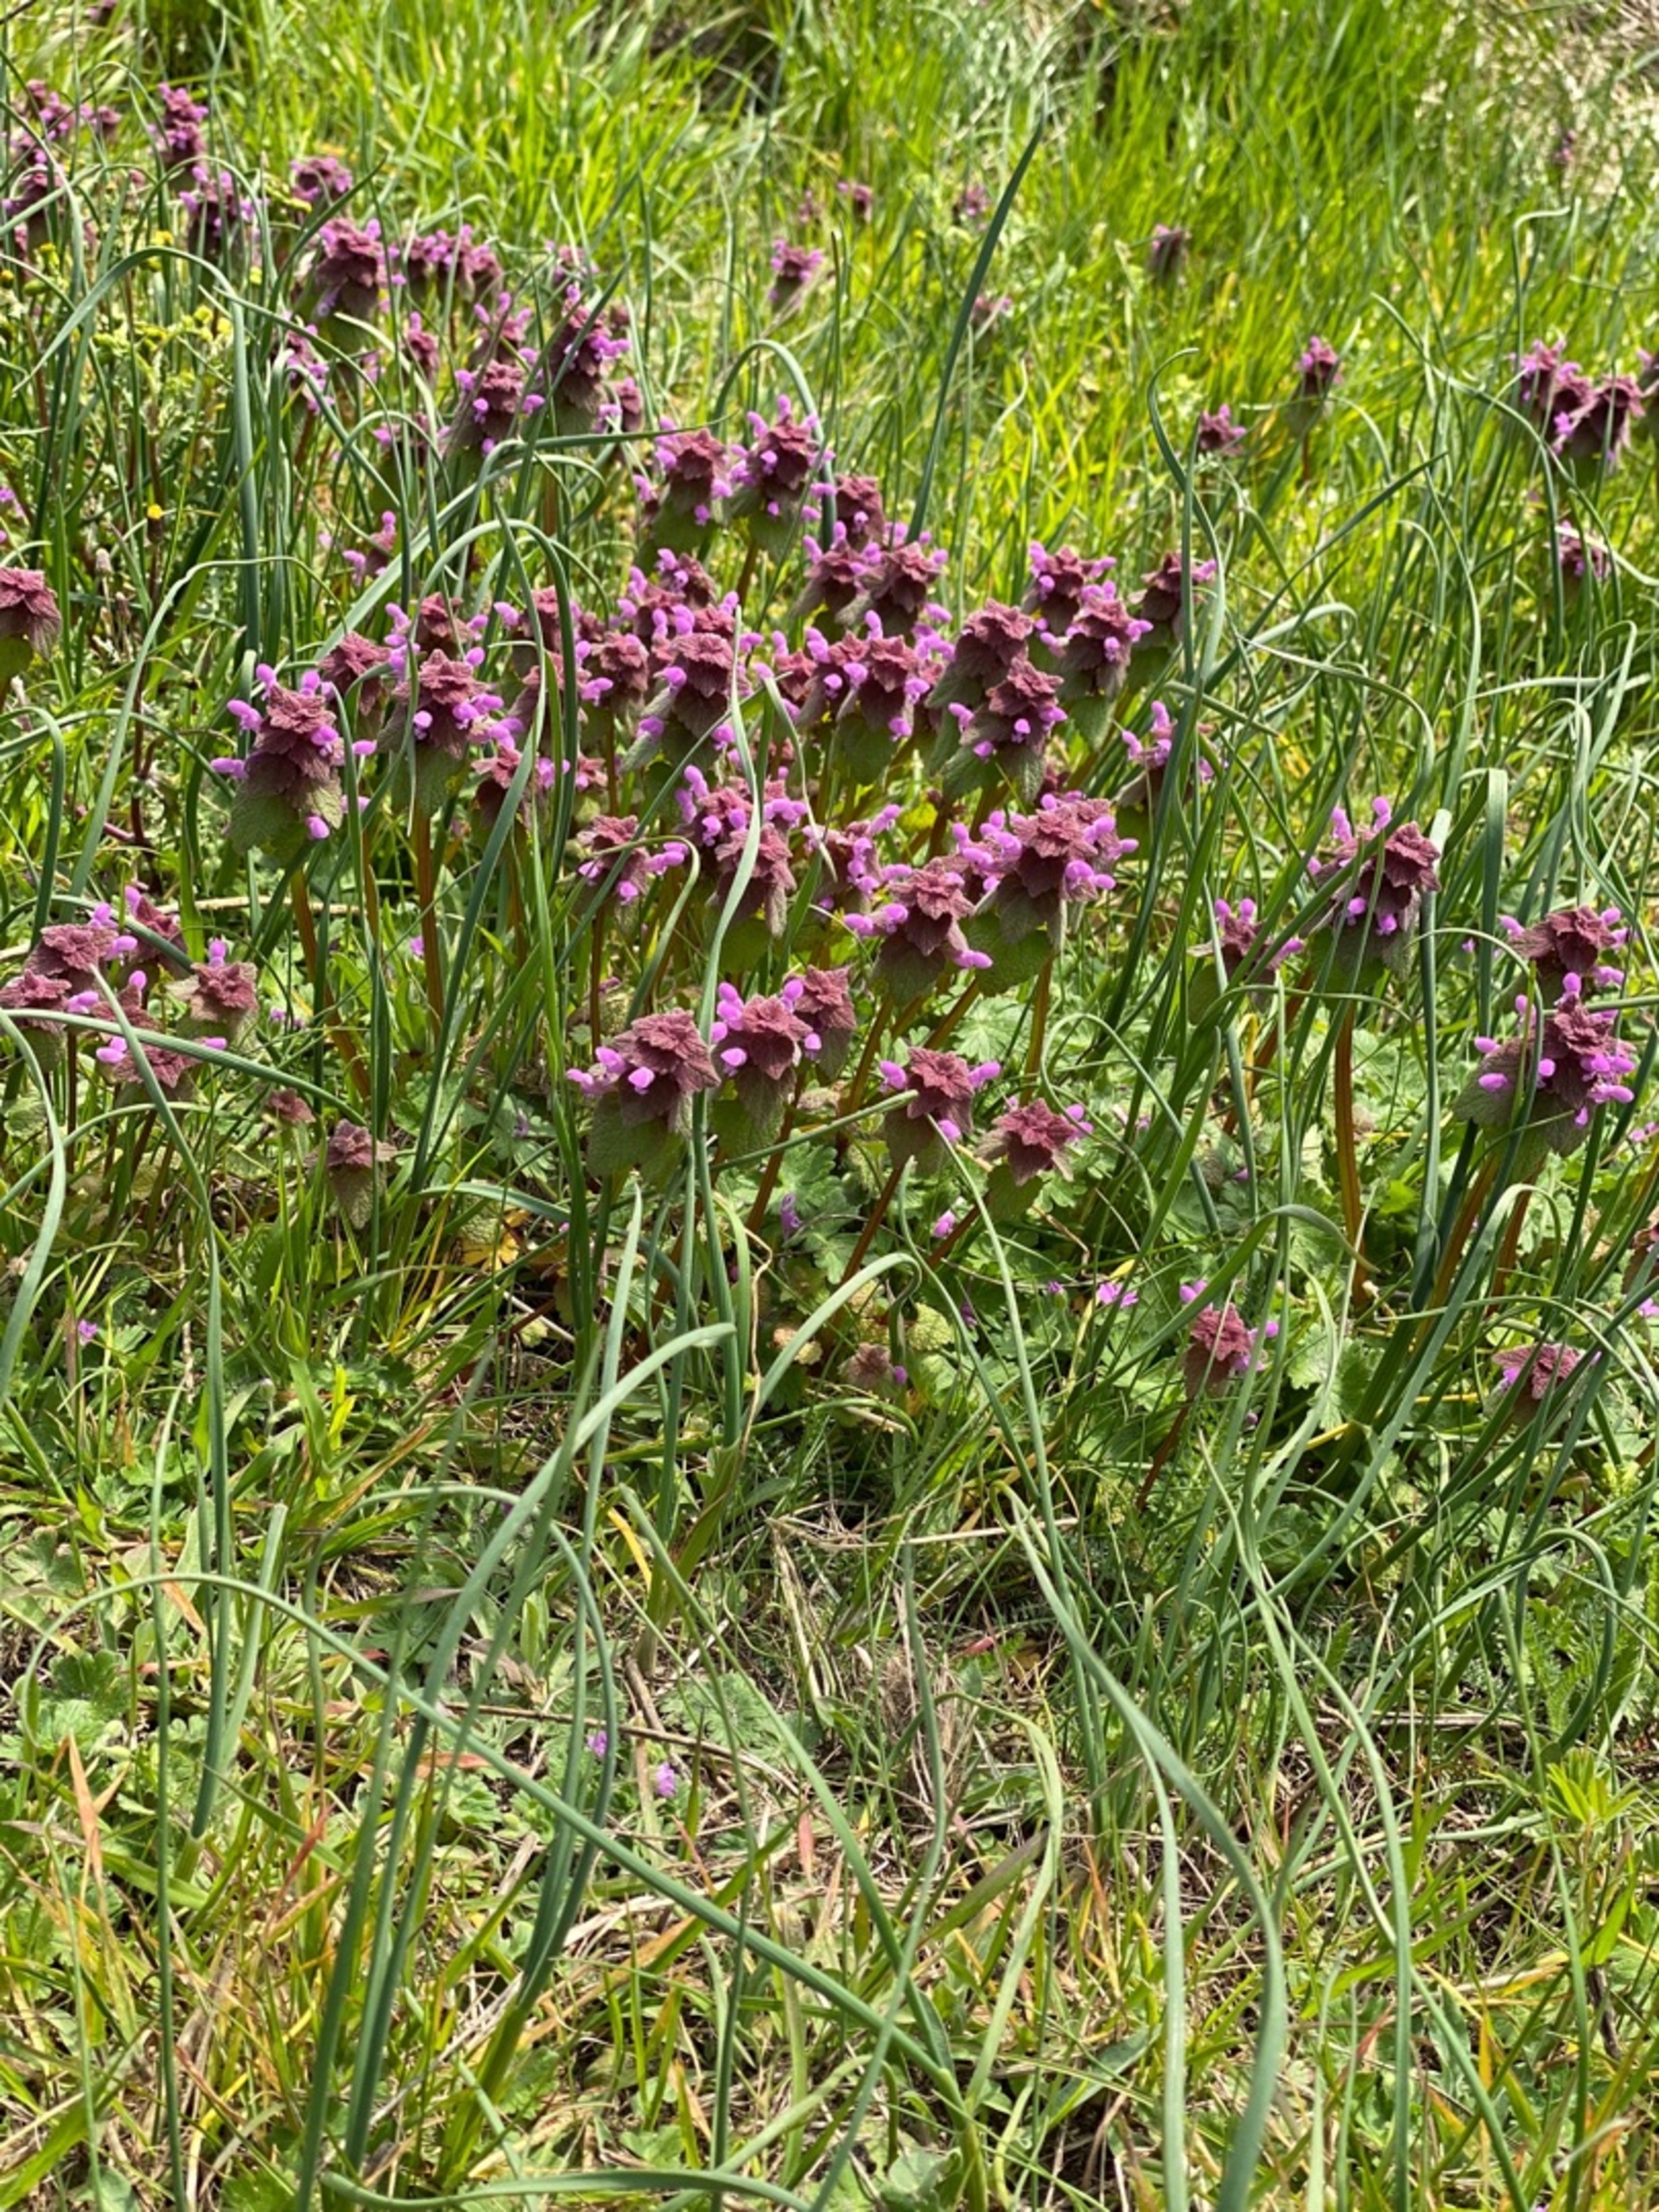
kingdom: Plantae
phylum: Tracheophyta
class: Magnoliopsida
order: Lamiales
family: Lamiaceae
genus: Lamium
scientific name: Lamium purpureum
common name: Rød tvetand
